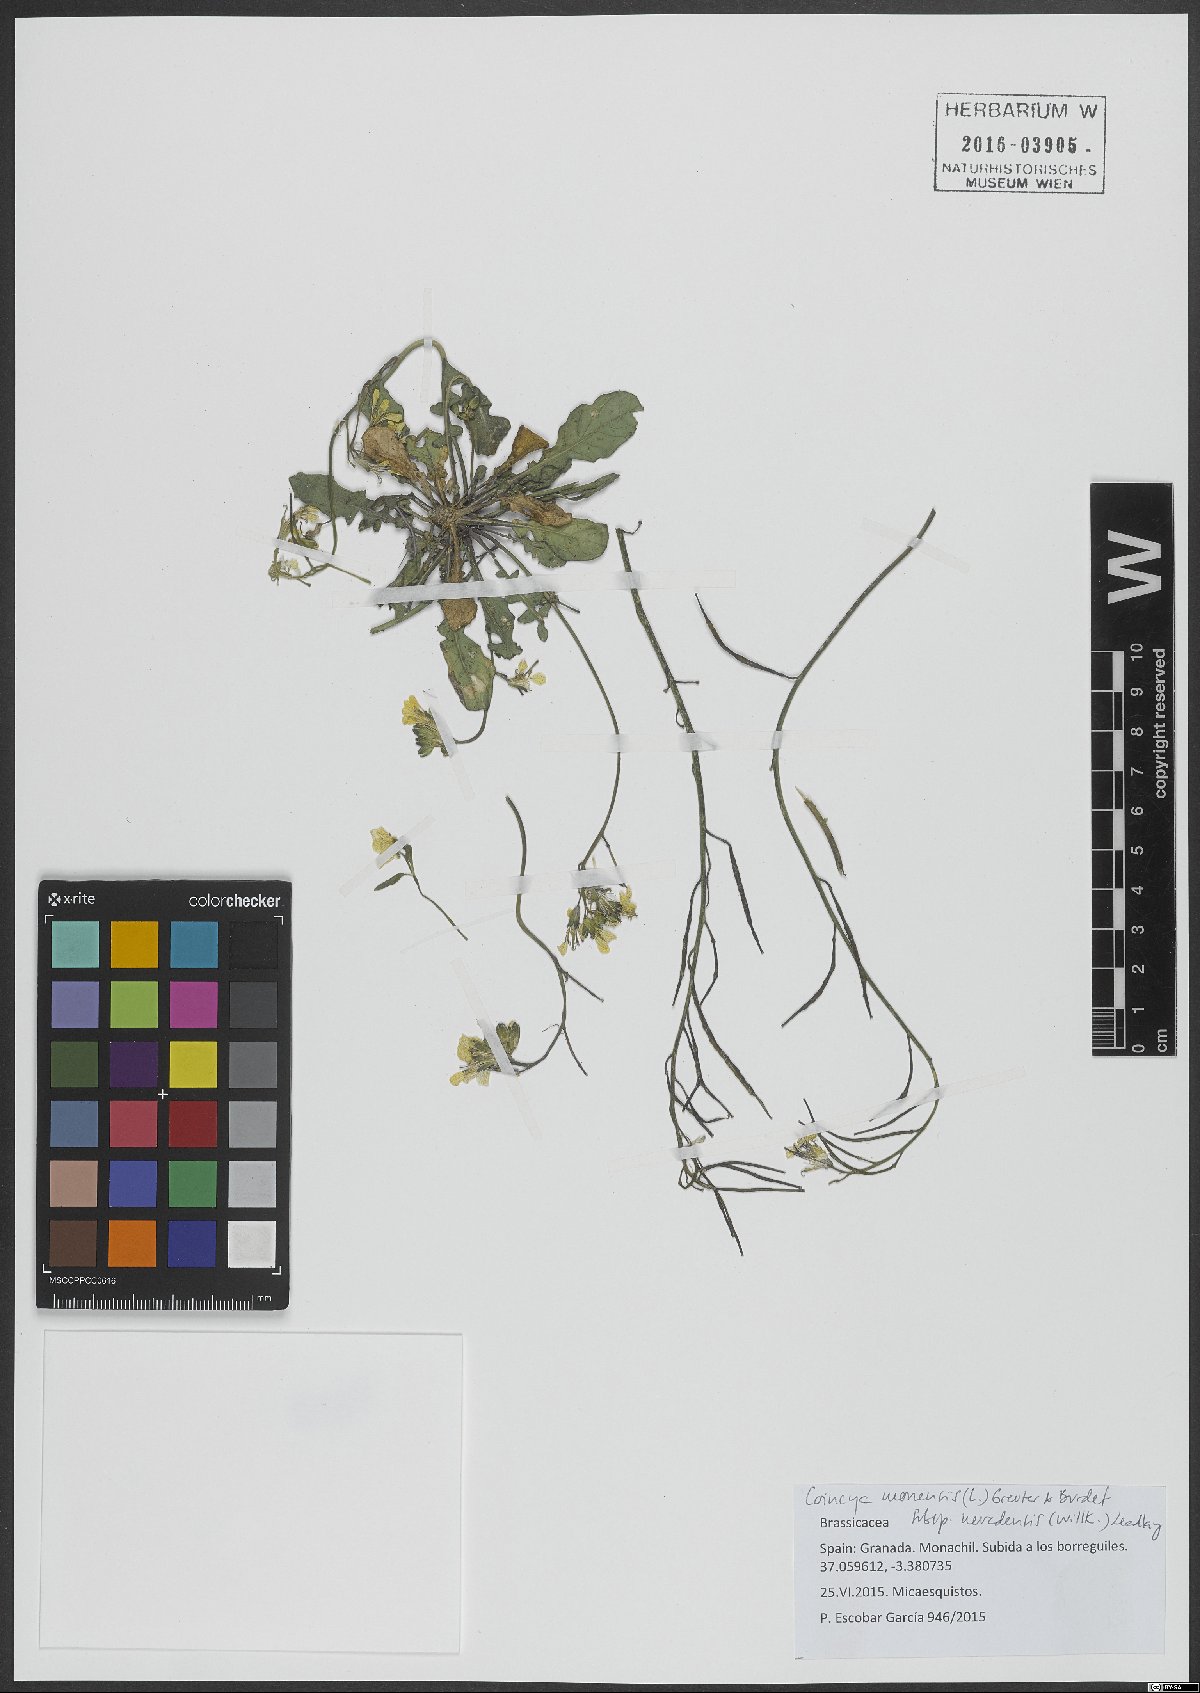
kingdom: Plantae
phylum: Tracheophyta
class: Magnoliopsida
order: Brassicales
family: Brassicaceae
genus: Coincya
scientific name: Coincya monensis
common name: Star-mustard
